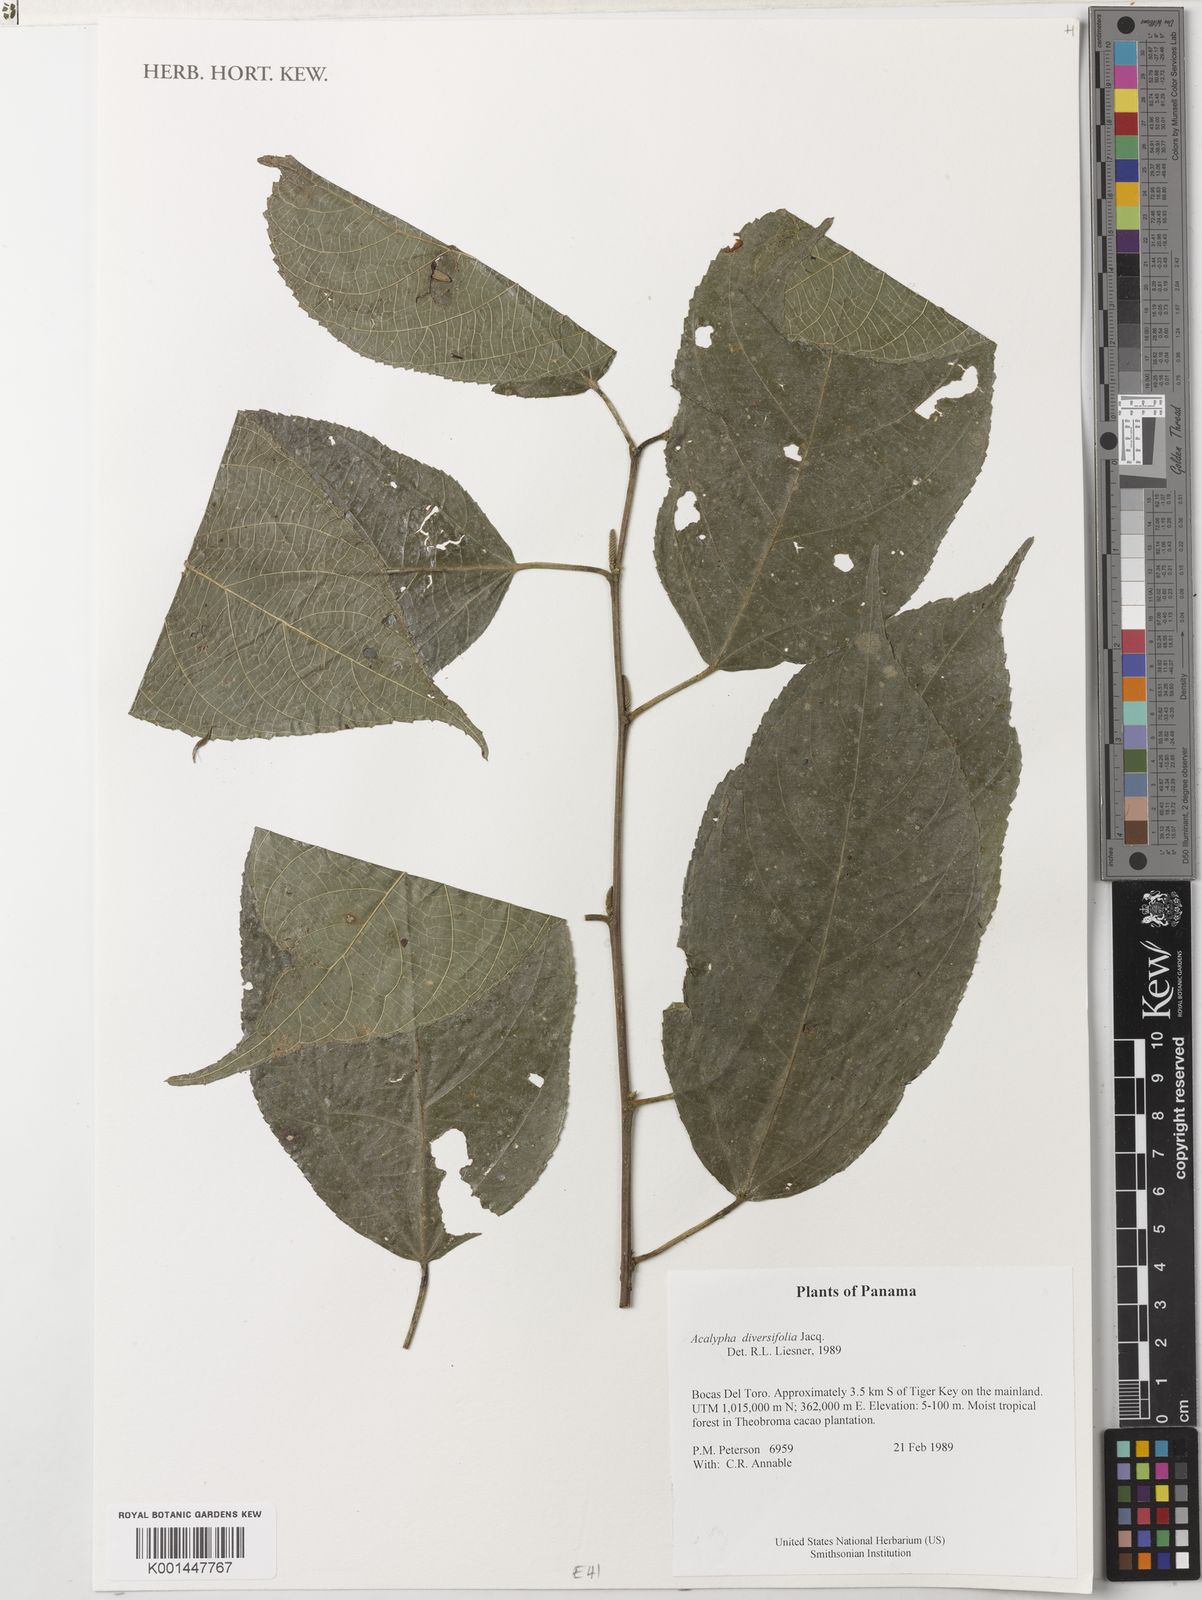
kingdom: Plantae
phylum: Tracheophyta
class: Magnoliopsida
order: Malpighiales
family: Euphorbiaceae
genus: Acalypha
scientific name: Acalypha diversifolia
